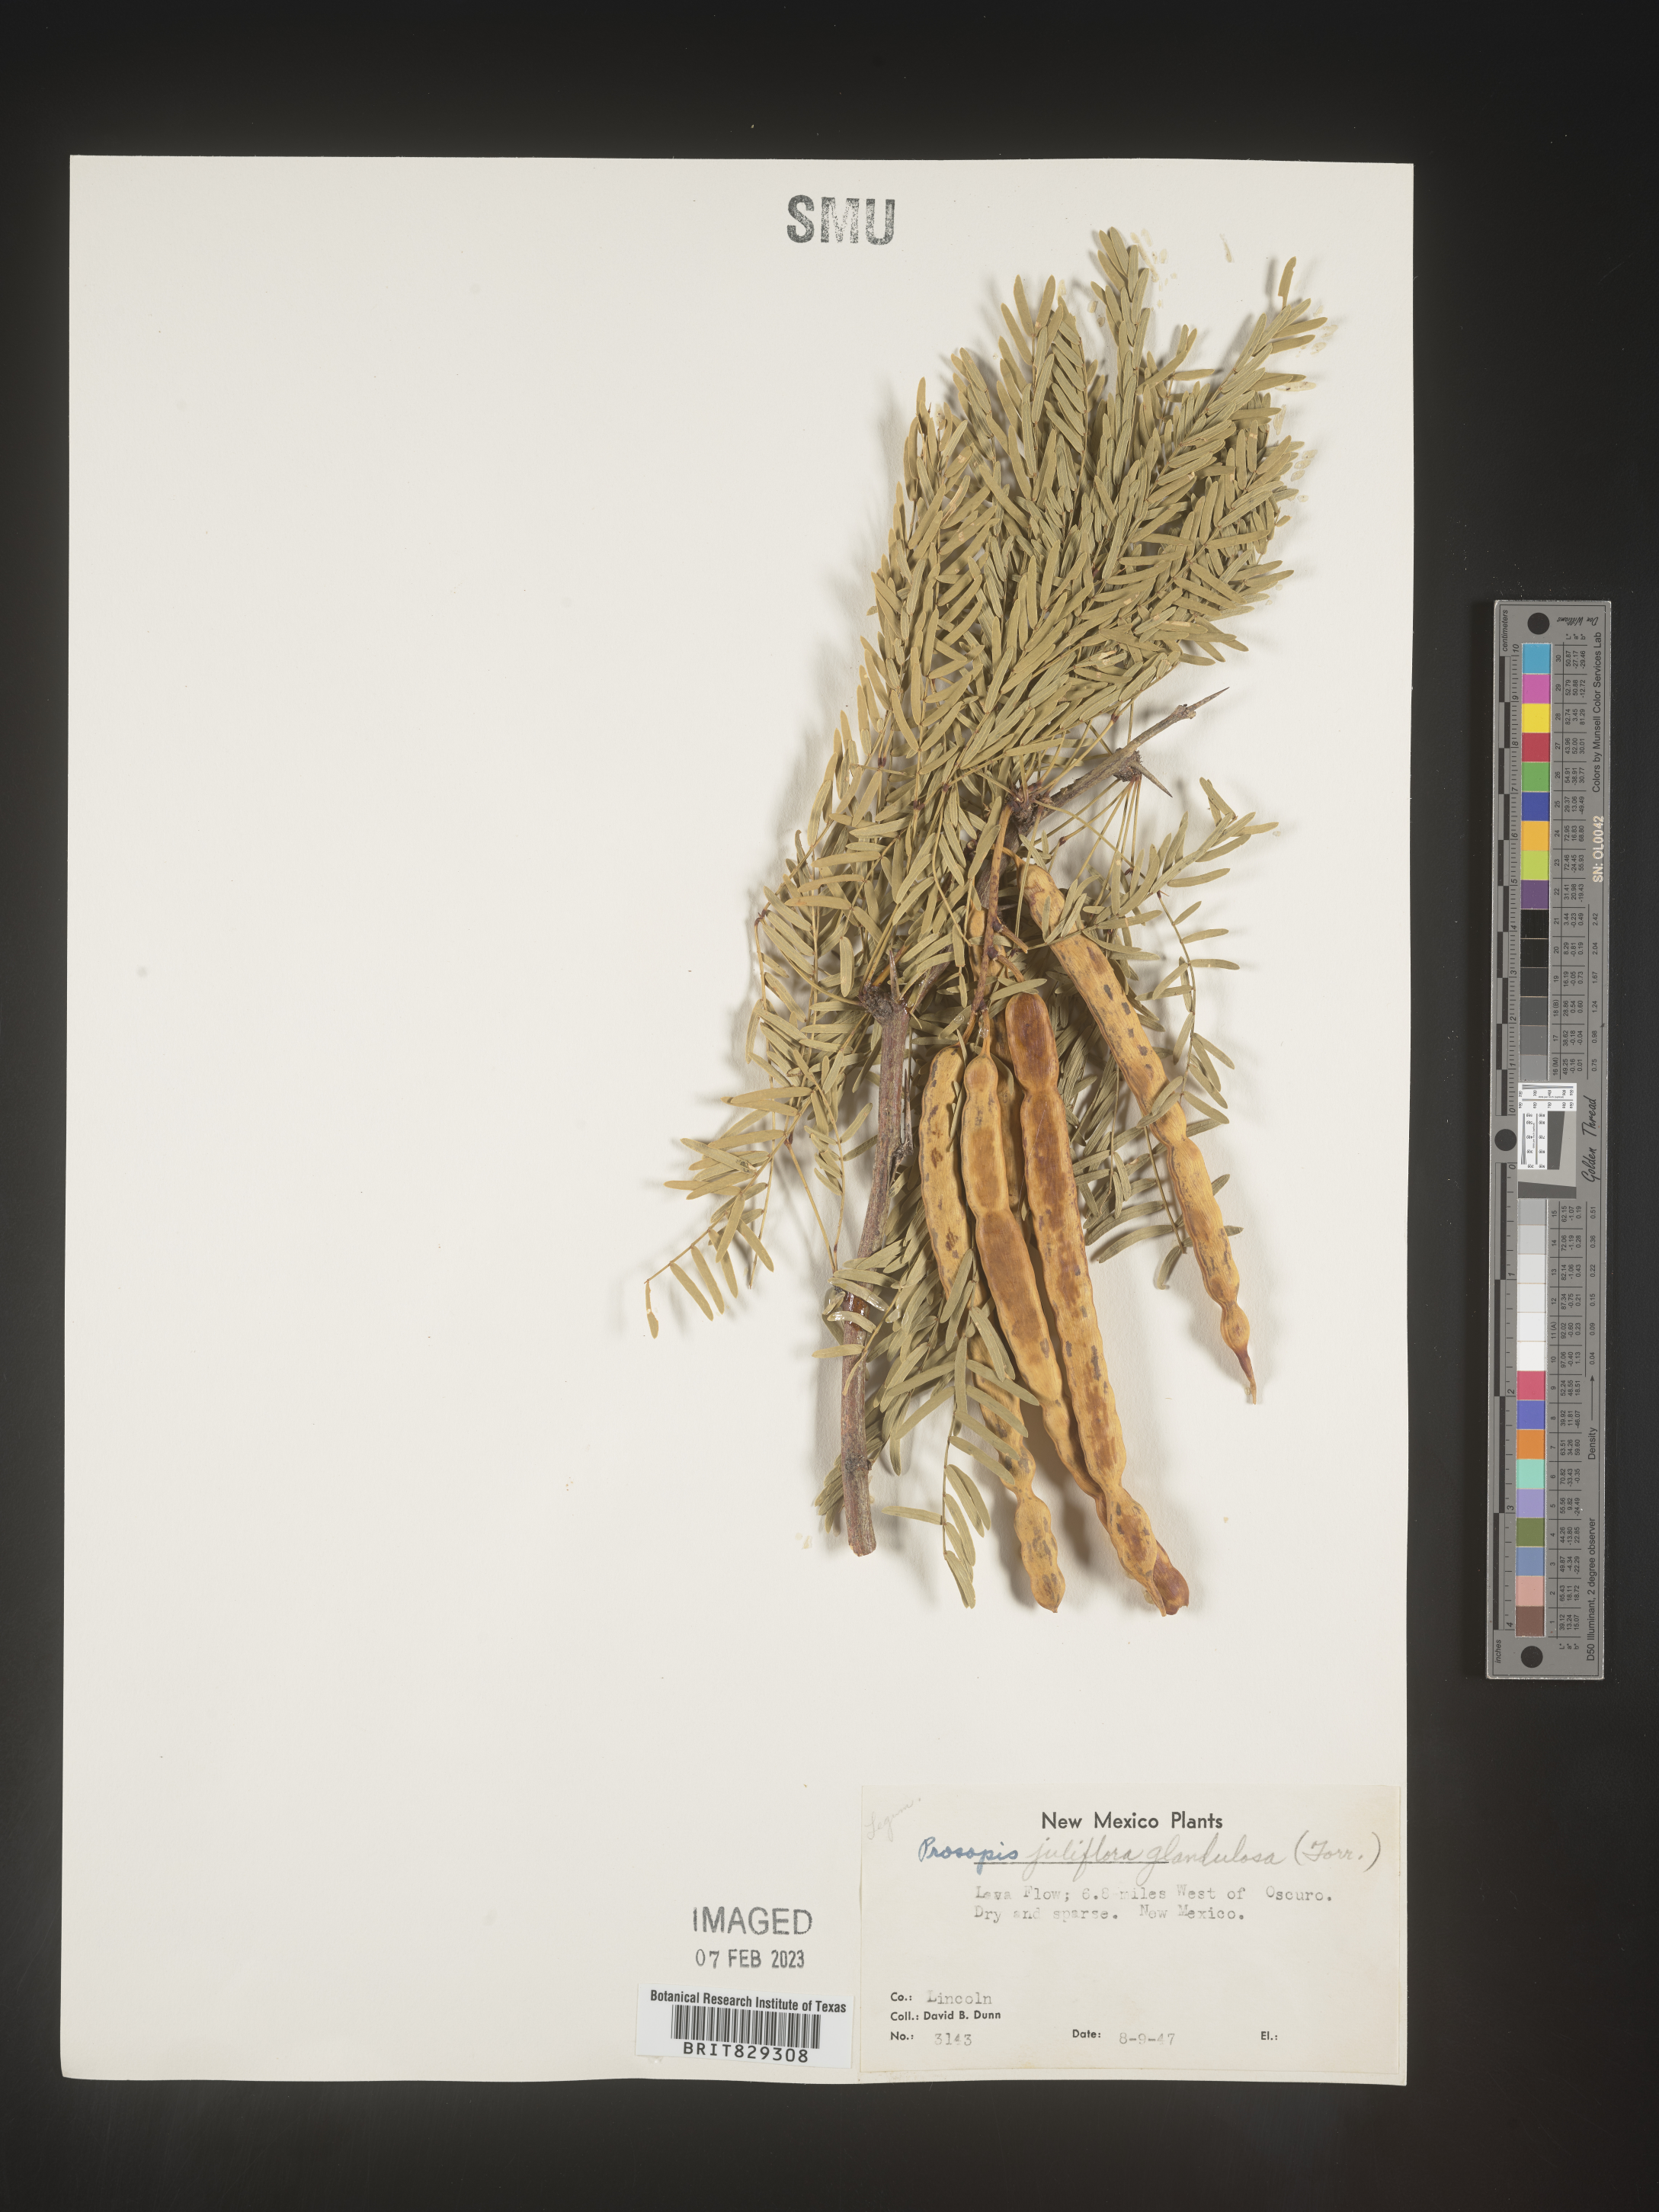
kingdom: Plantae
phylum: Tracheophyta
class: Magnoliopsida
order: Fabales
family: Fabaceae
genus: Prosopis
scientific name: Prosopis juliflora
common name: Mesquite
